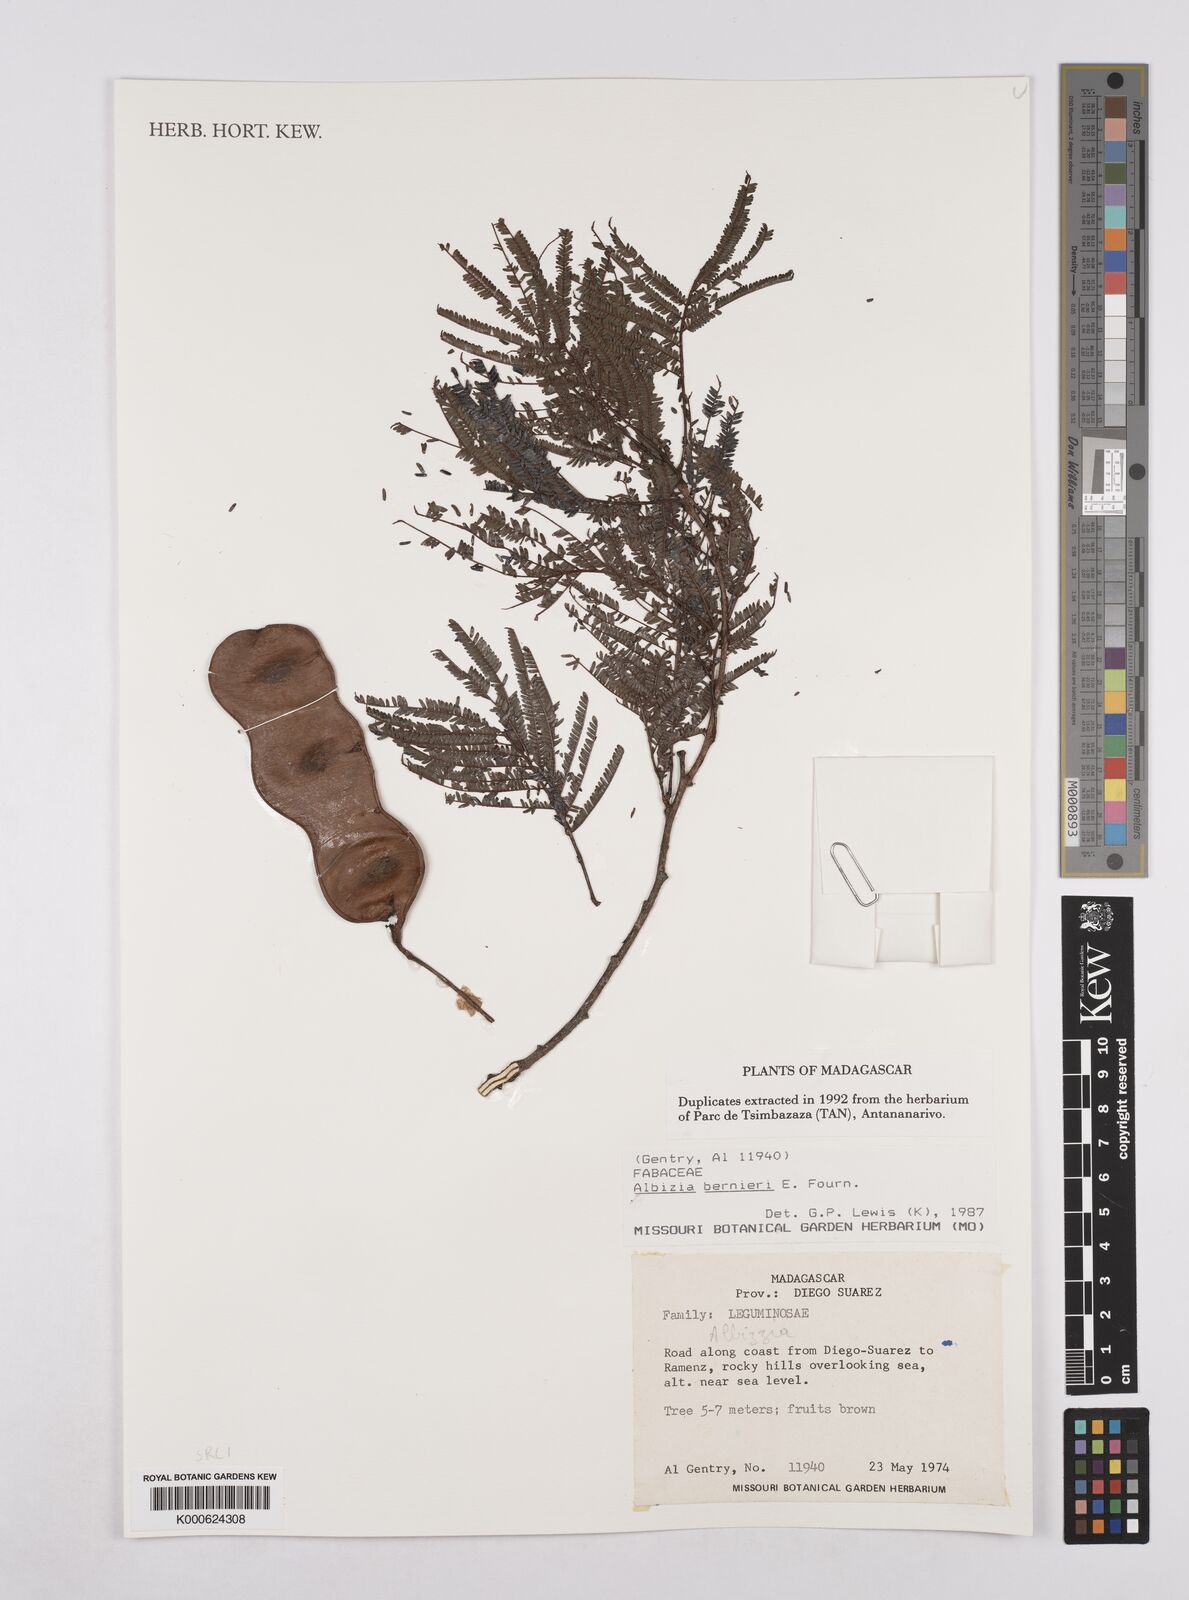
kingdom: Plantae
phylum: Tracheophyta
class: Magnoliopsida
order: Fabales
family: Fabaceae
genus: Albizia
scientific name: Albizia bernieri
